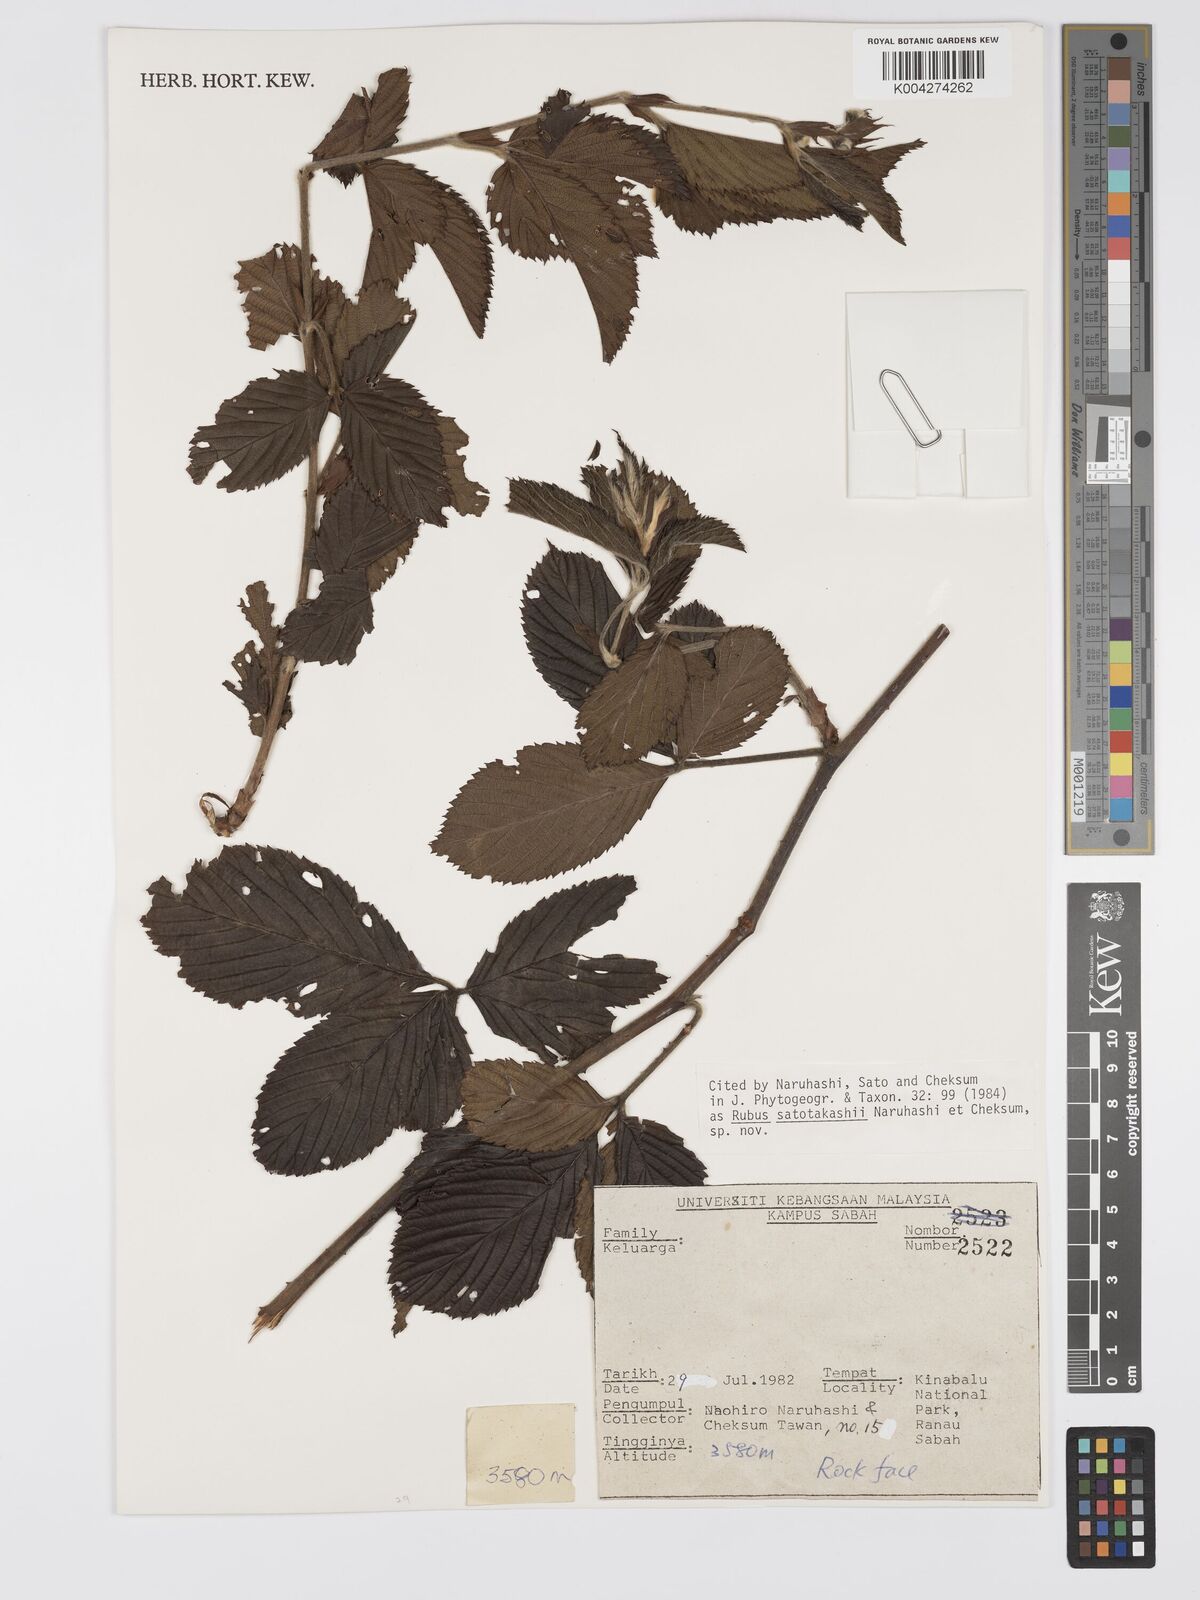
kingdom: Plantae
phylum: Tracheophyta
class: Magnoliopsida
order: Rosales
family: Rosaceae
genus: Rubus
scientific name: Rubus satotakashii
